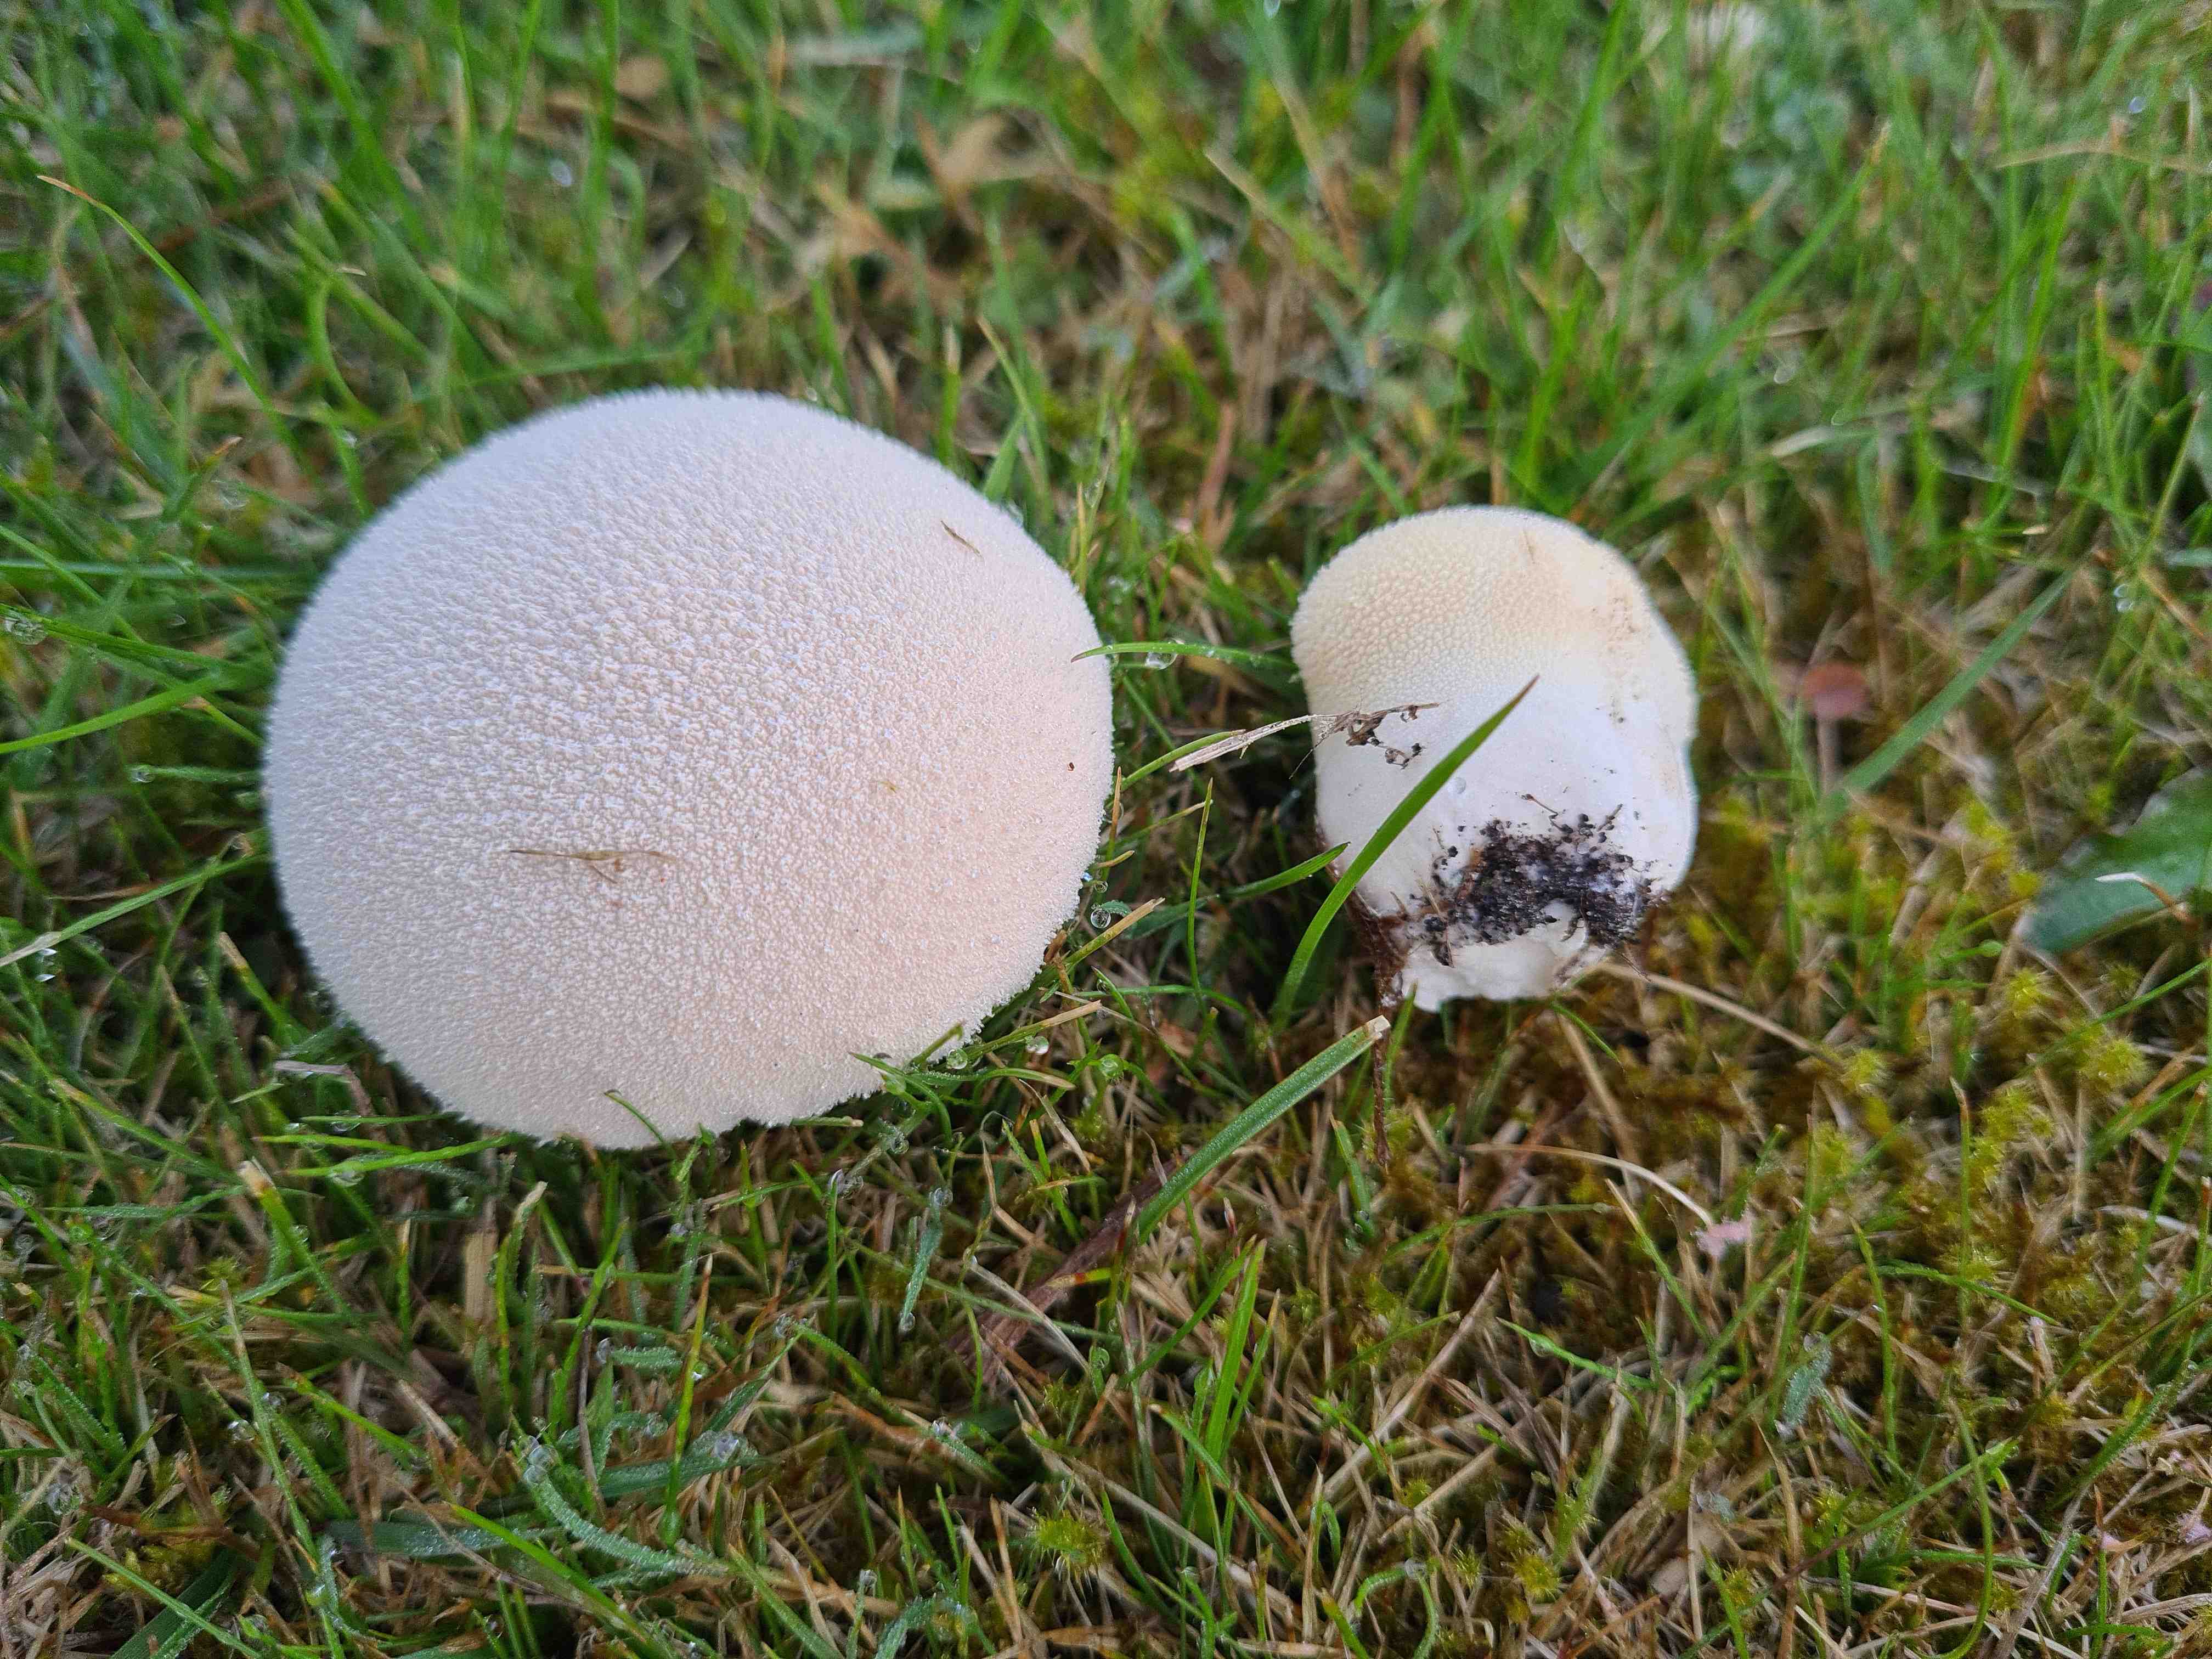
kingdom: Fungi
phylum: Basidiomycota
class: Agaricomycetes
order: Agaricales
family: Lycoperdaceae
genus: Lycoperdon
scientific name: Lycoperdon pratense
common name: flad støvbold
